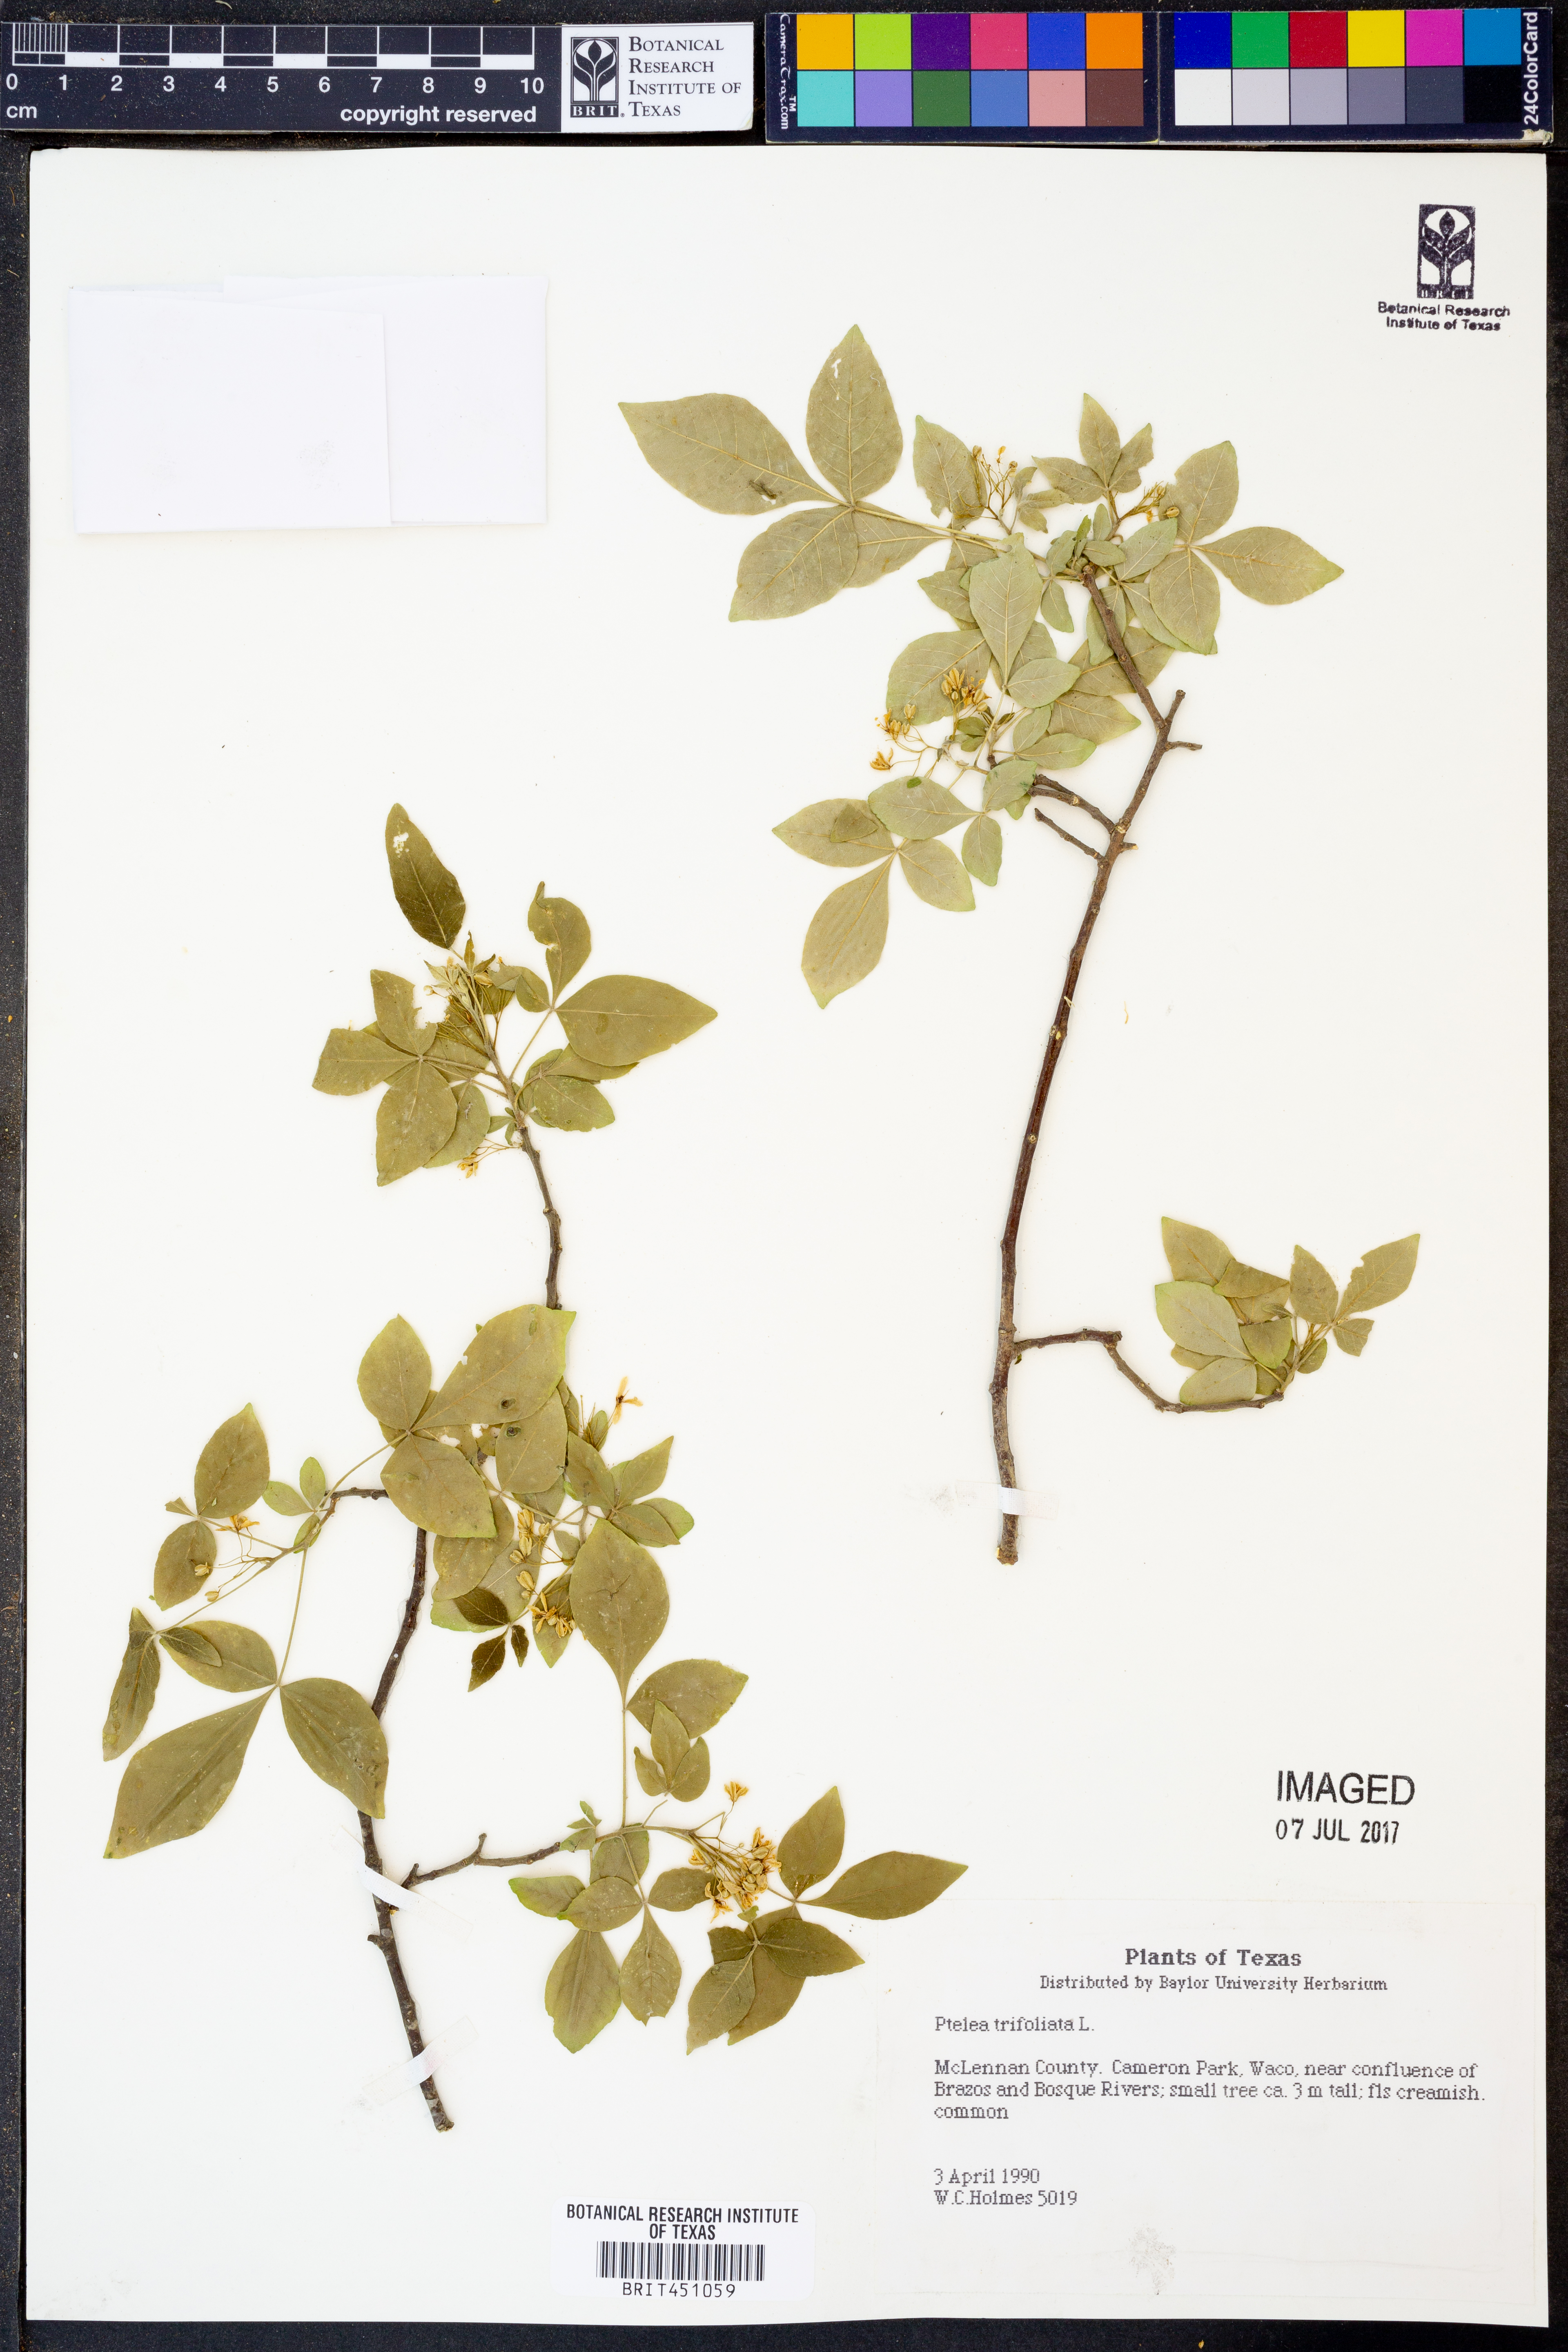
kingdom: Plantae
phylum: Tracheophyta
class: Magnoliopsida
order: Sapindales
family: Rutaceae
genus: Ptelea
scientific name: Ptelea trifoliata
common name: Common hop-tree
